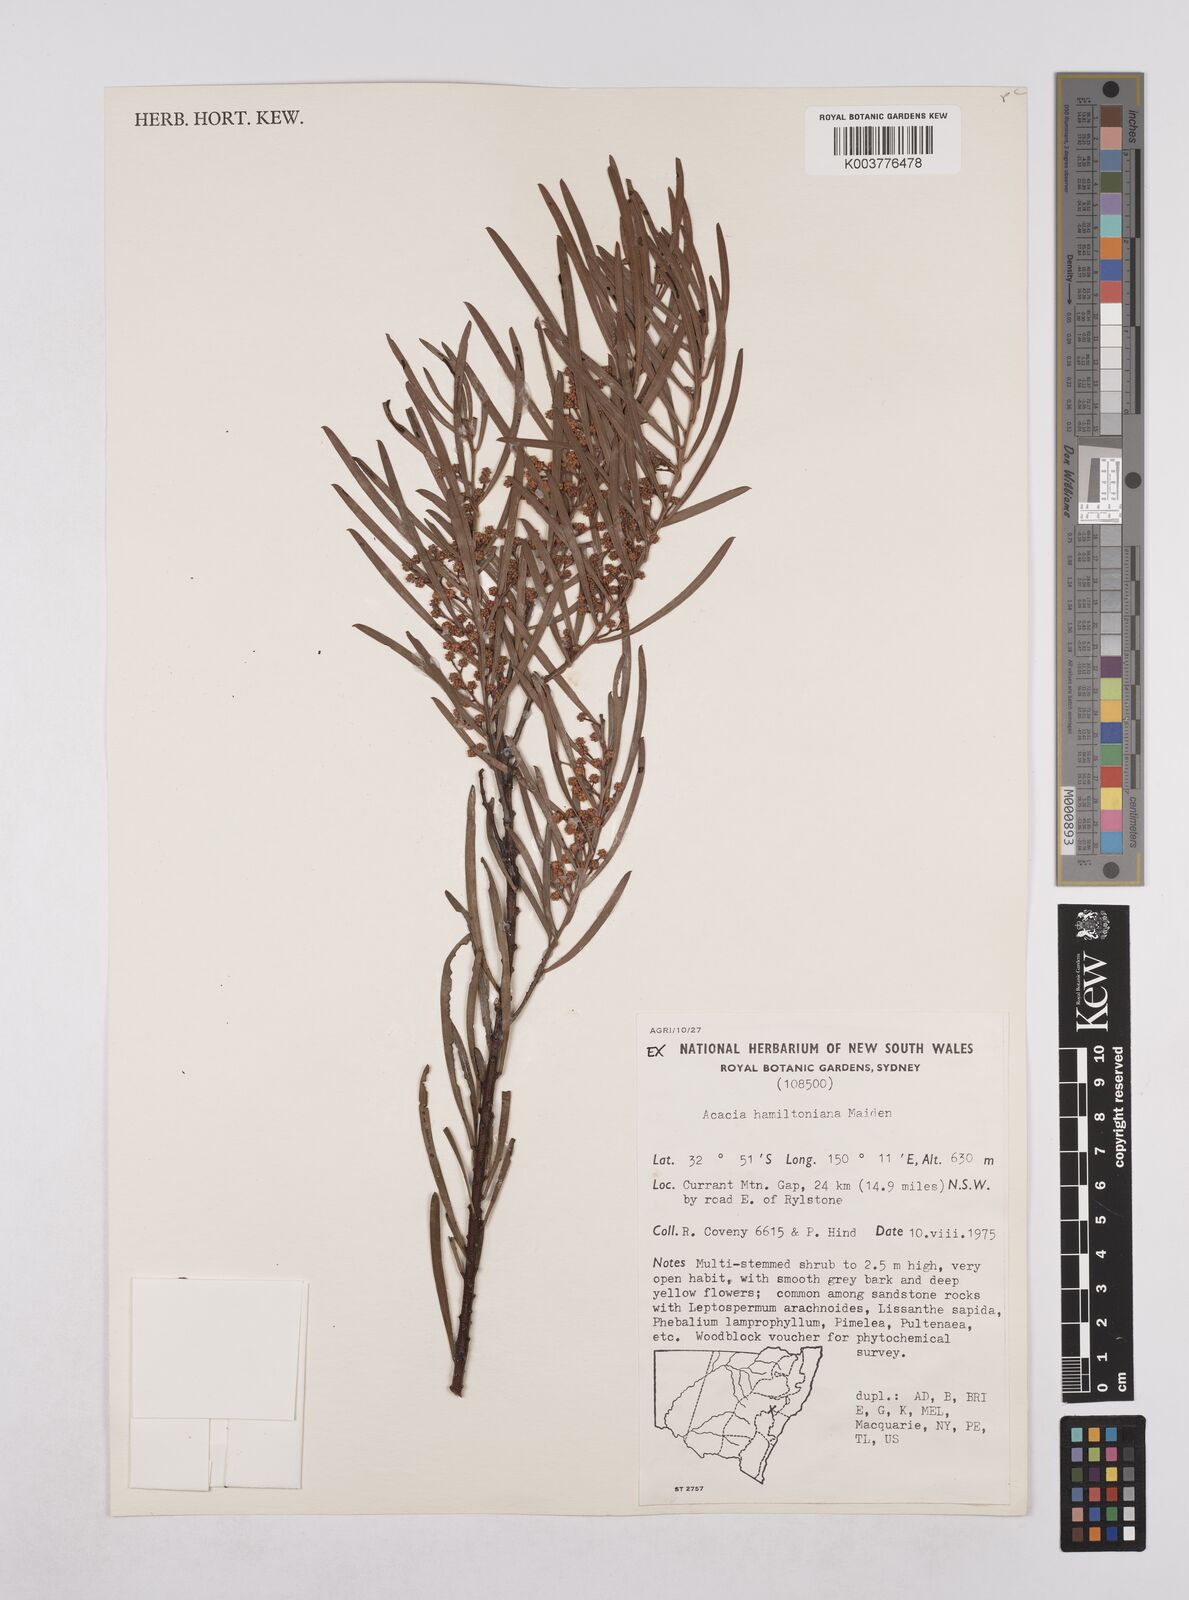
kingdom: Plantae
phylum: Tracheophyta
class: Magnoliopsida
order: Fabales
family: Fabaceae
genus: Acacia
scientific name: Acacia hamiltoniana
